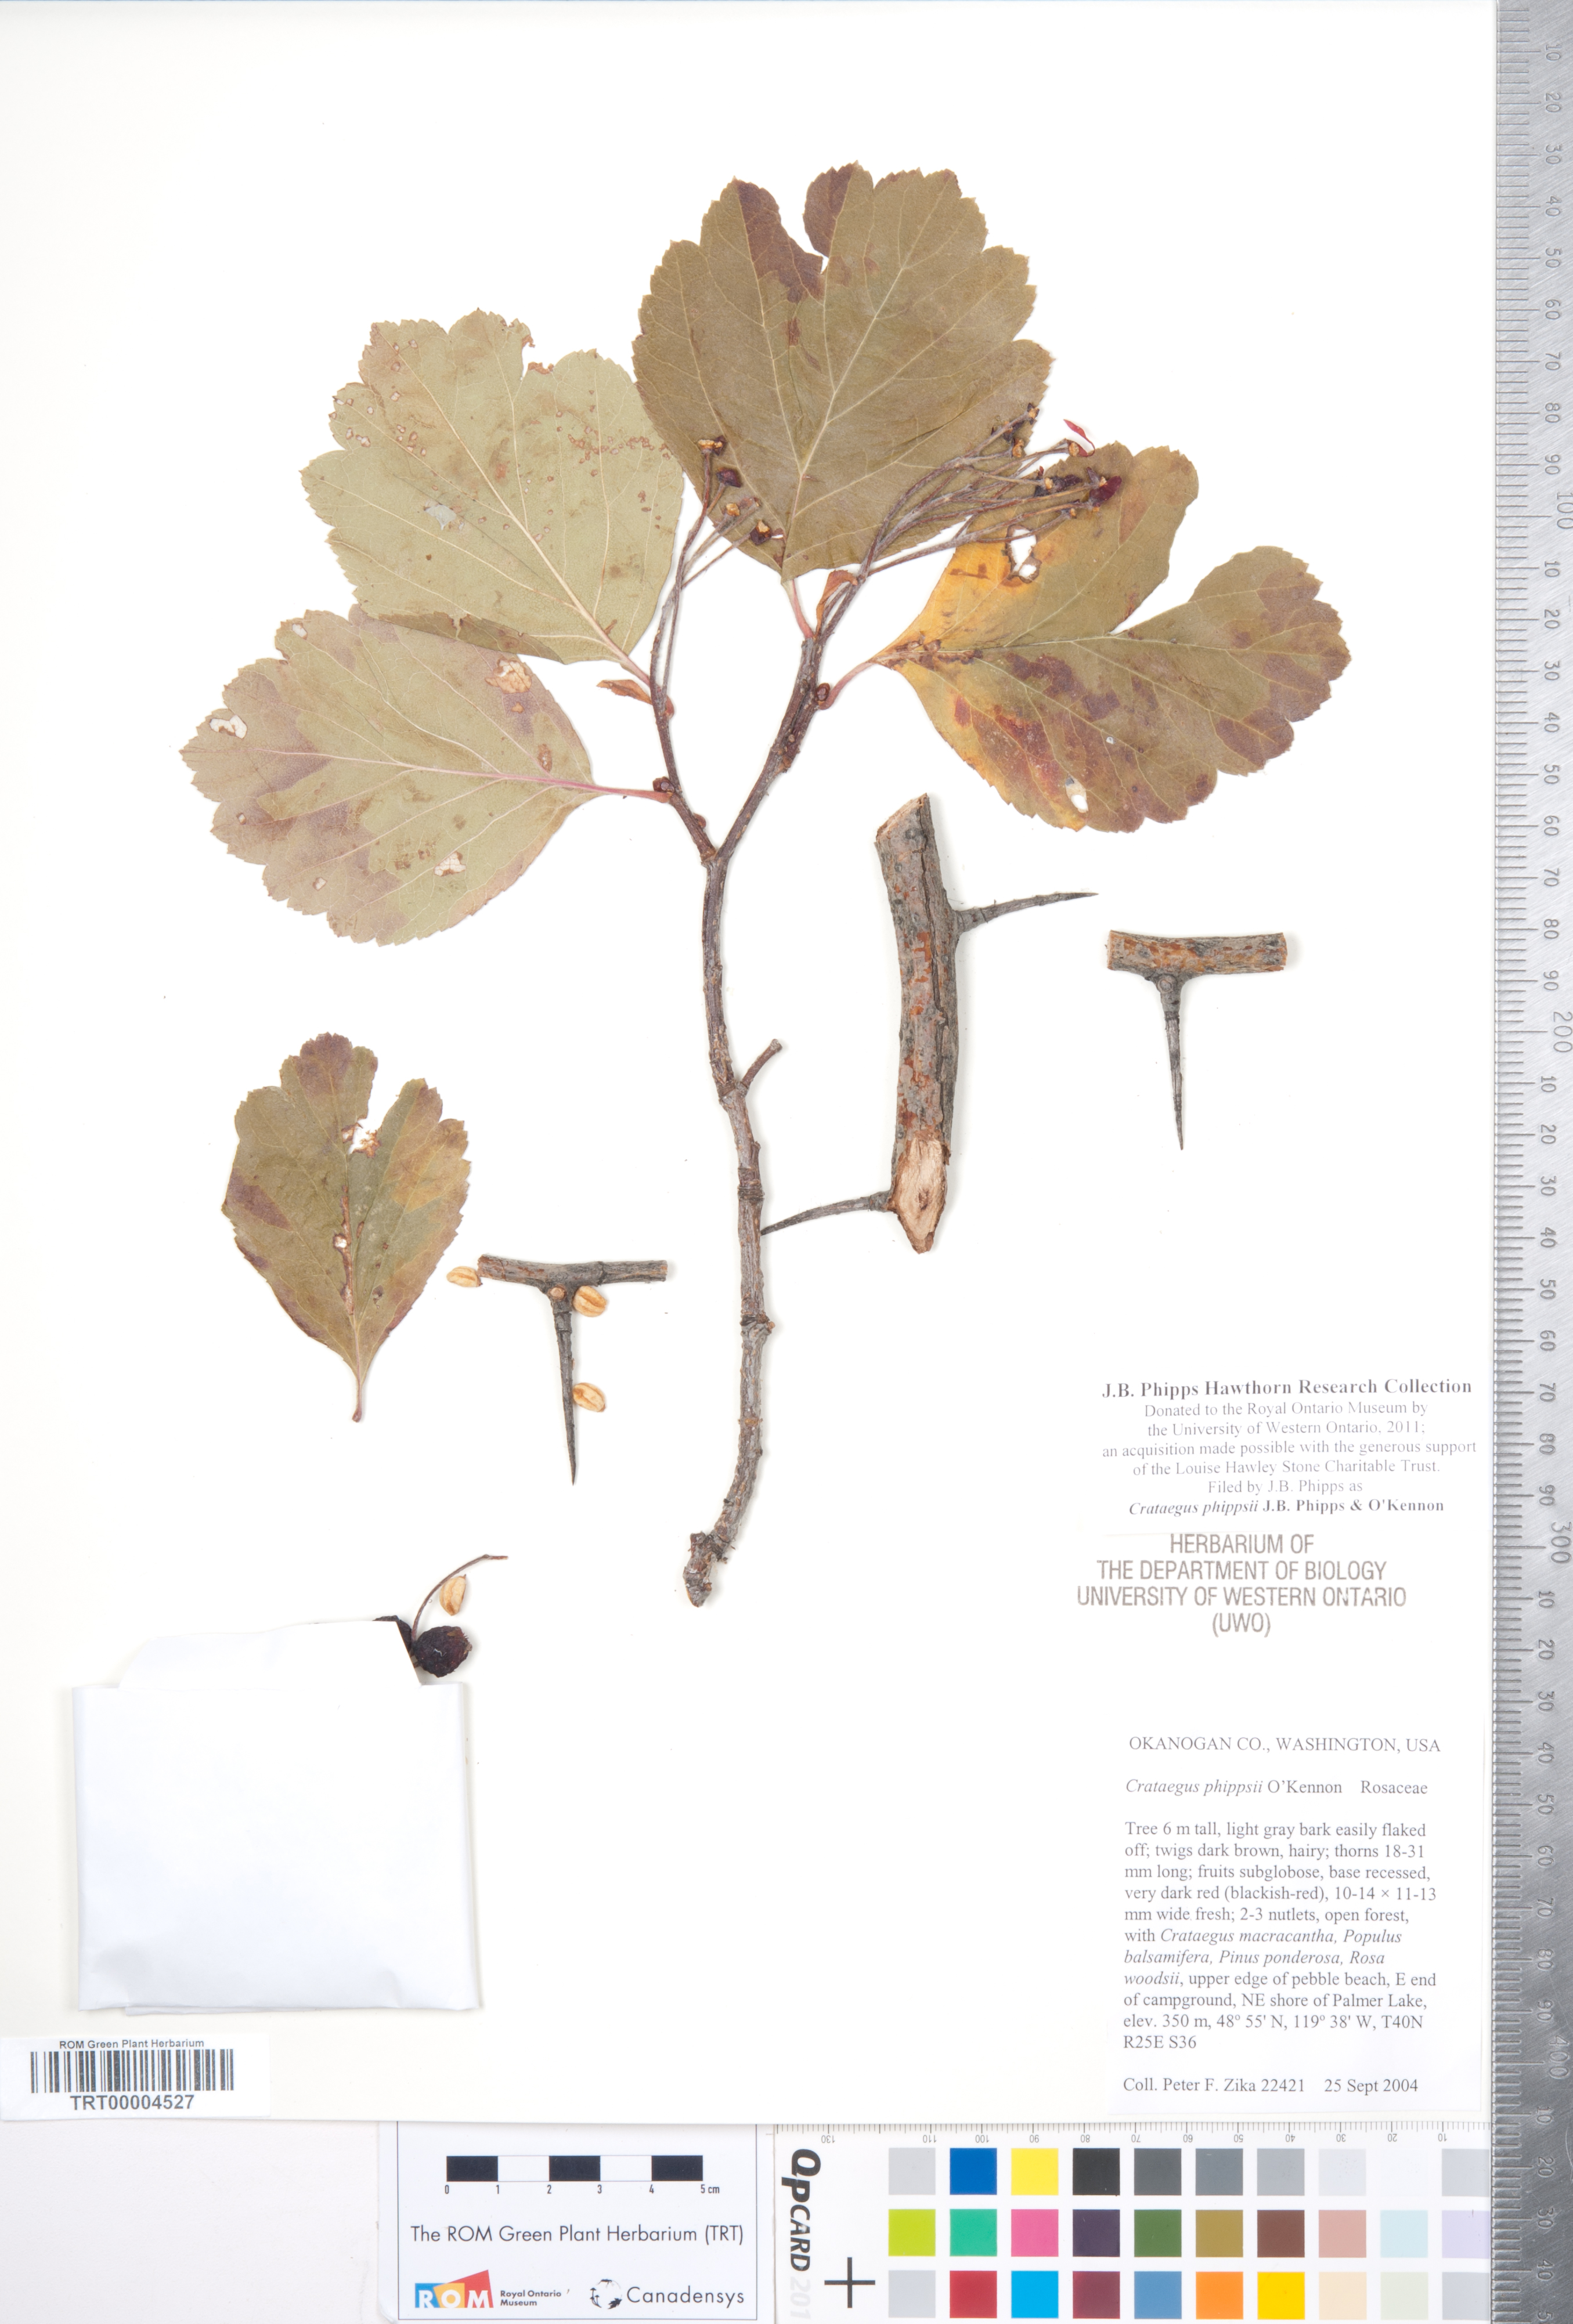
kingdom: Plantae
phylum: Tracheophyta
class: Magnoliopsida
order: Rosales
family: Rosaceae
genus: Crataegus
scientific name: Crataegus phippsii
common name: Phipps' hawthorn
